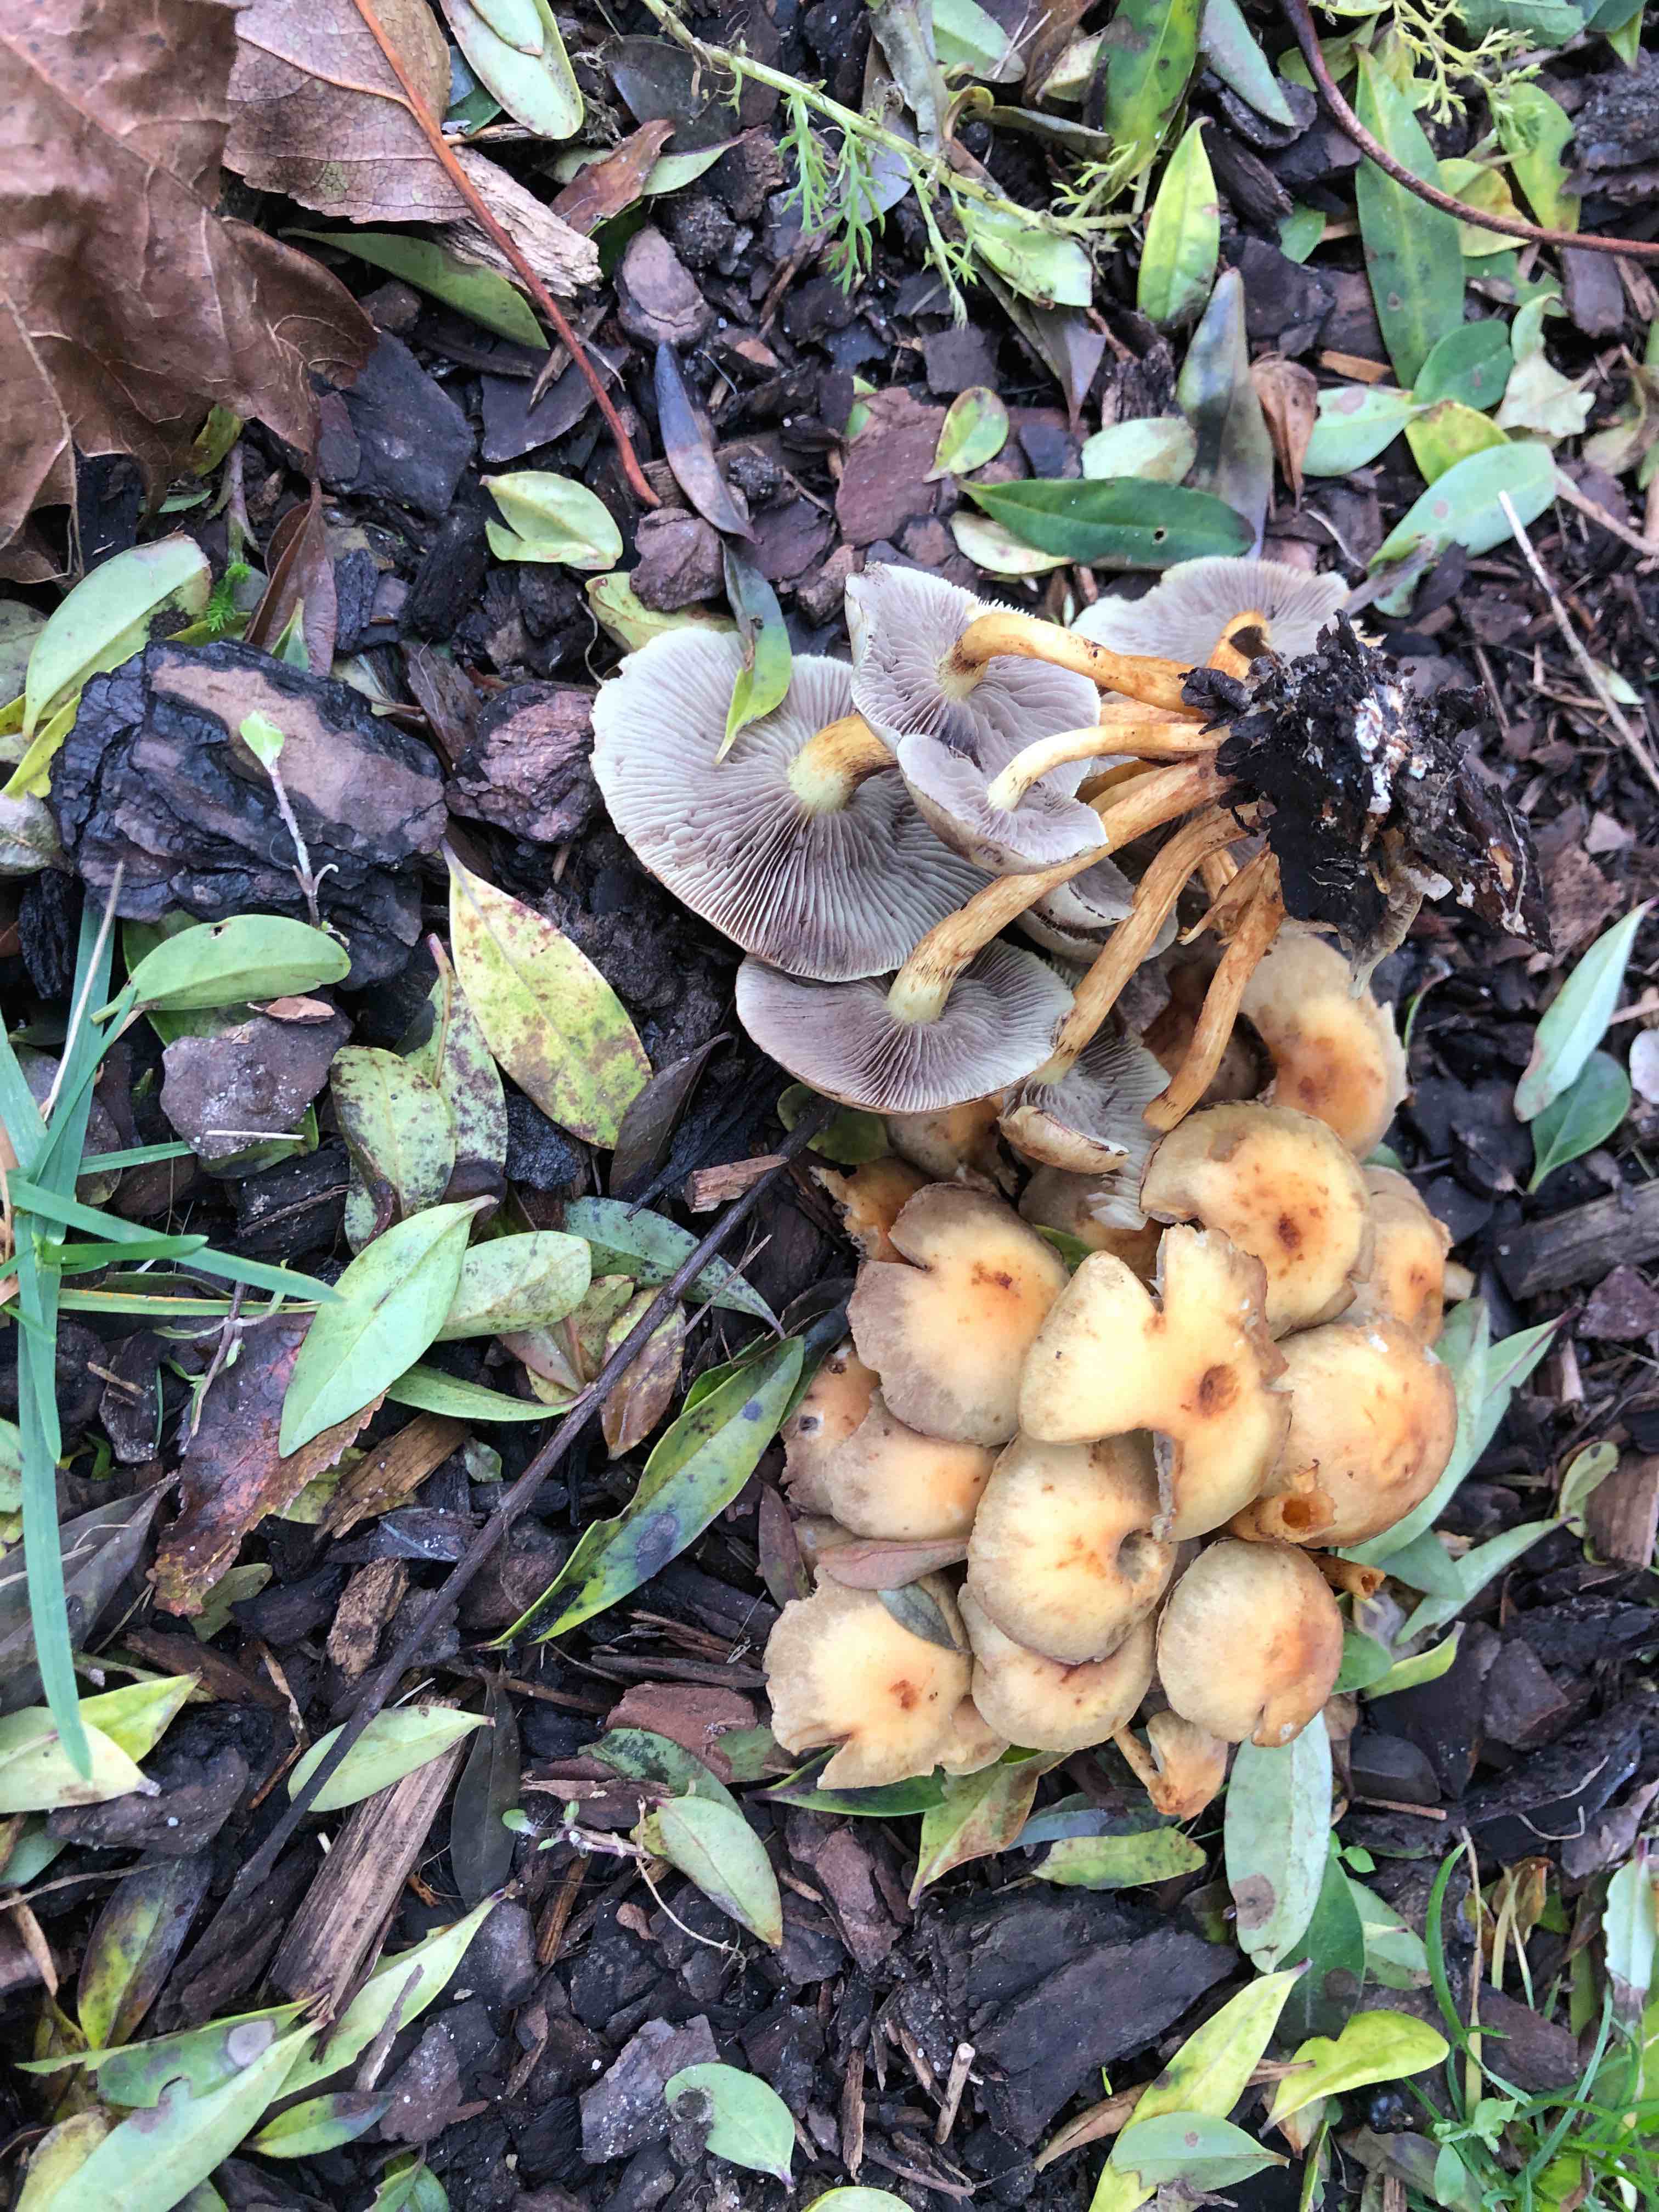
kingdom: Fungi
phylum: Basidiomycota
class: Agaricomycetes
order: Agaricales
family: Strophariaceae
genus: Hypholoma
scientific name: Hypholoma fasciculare
